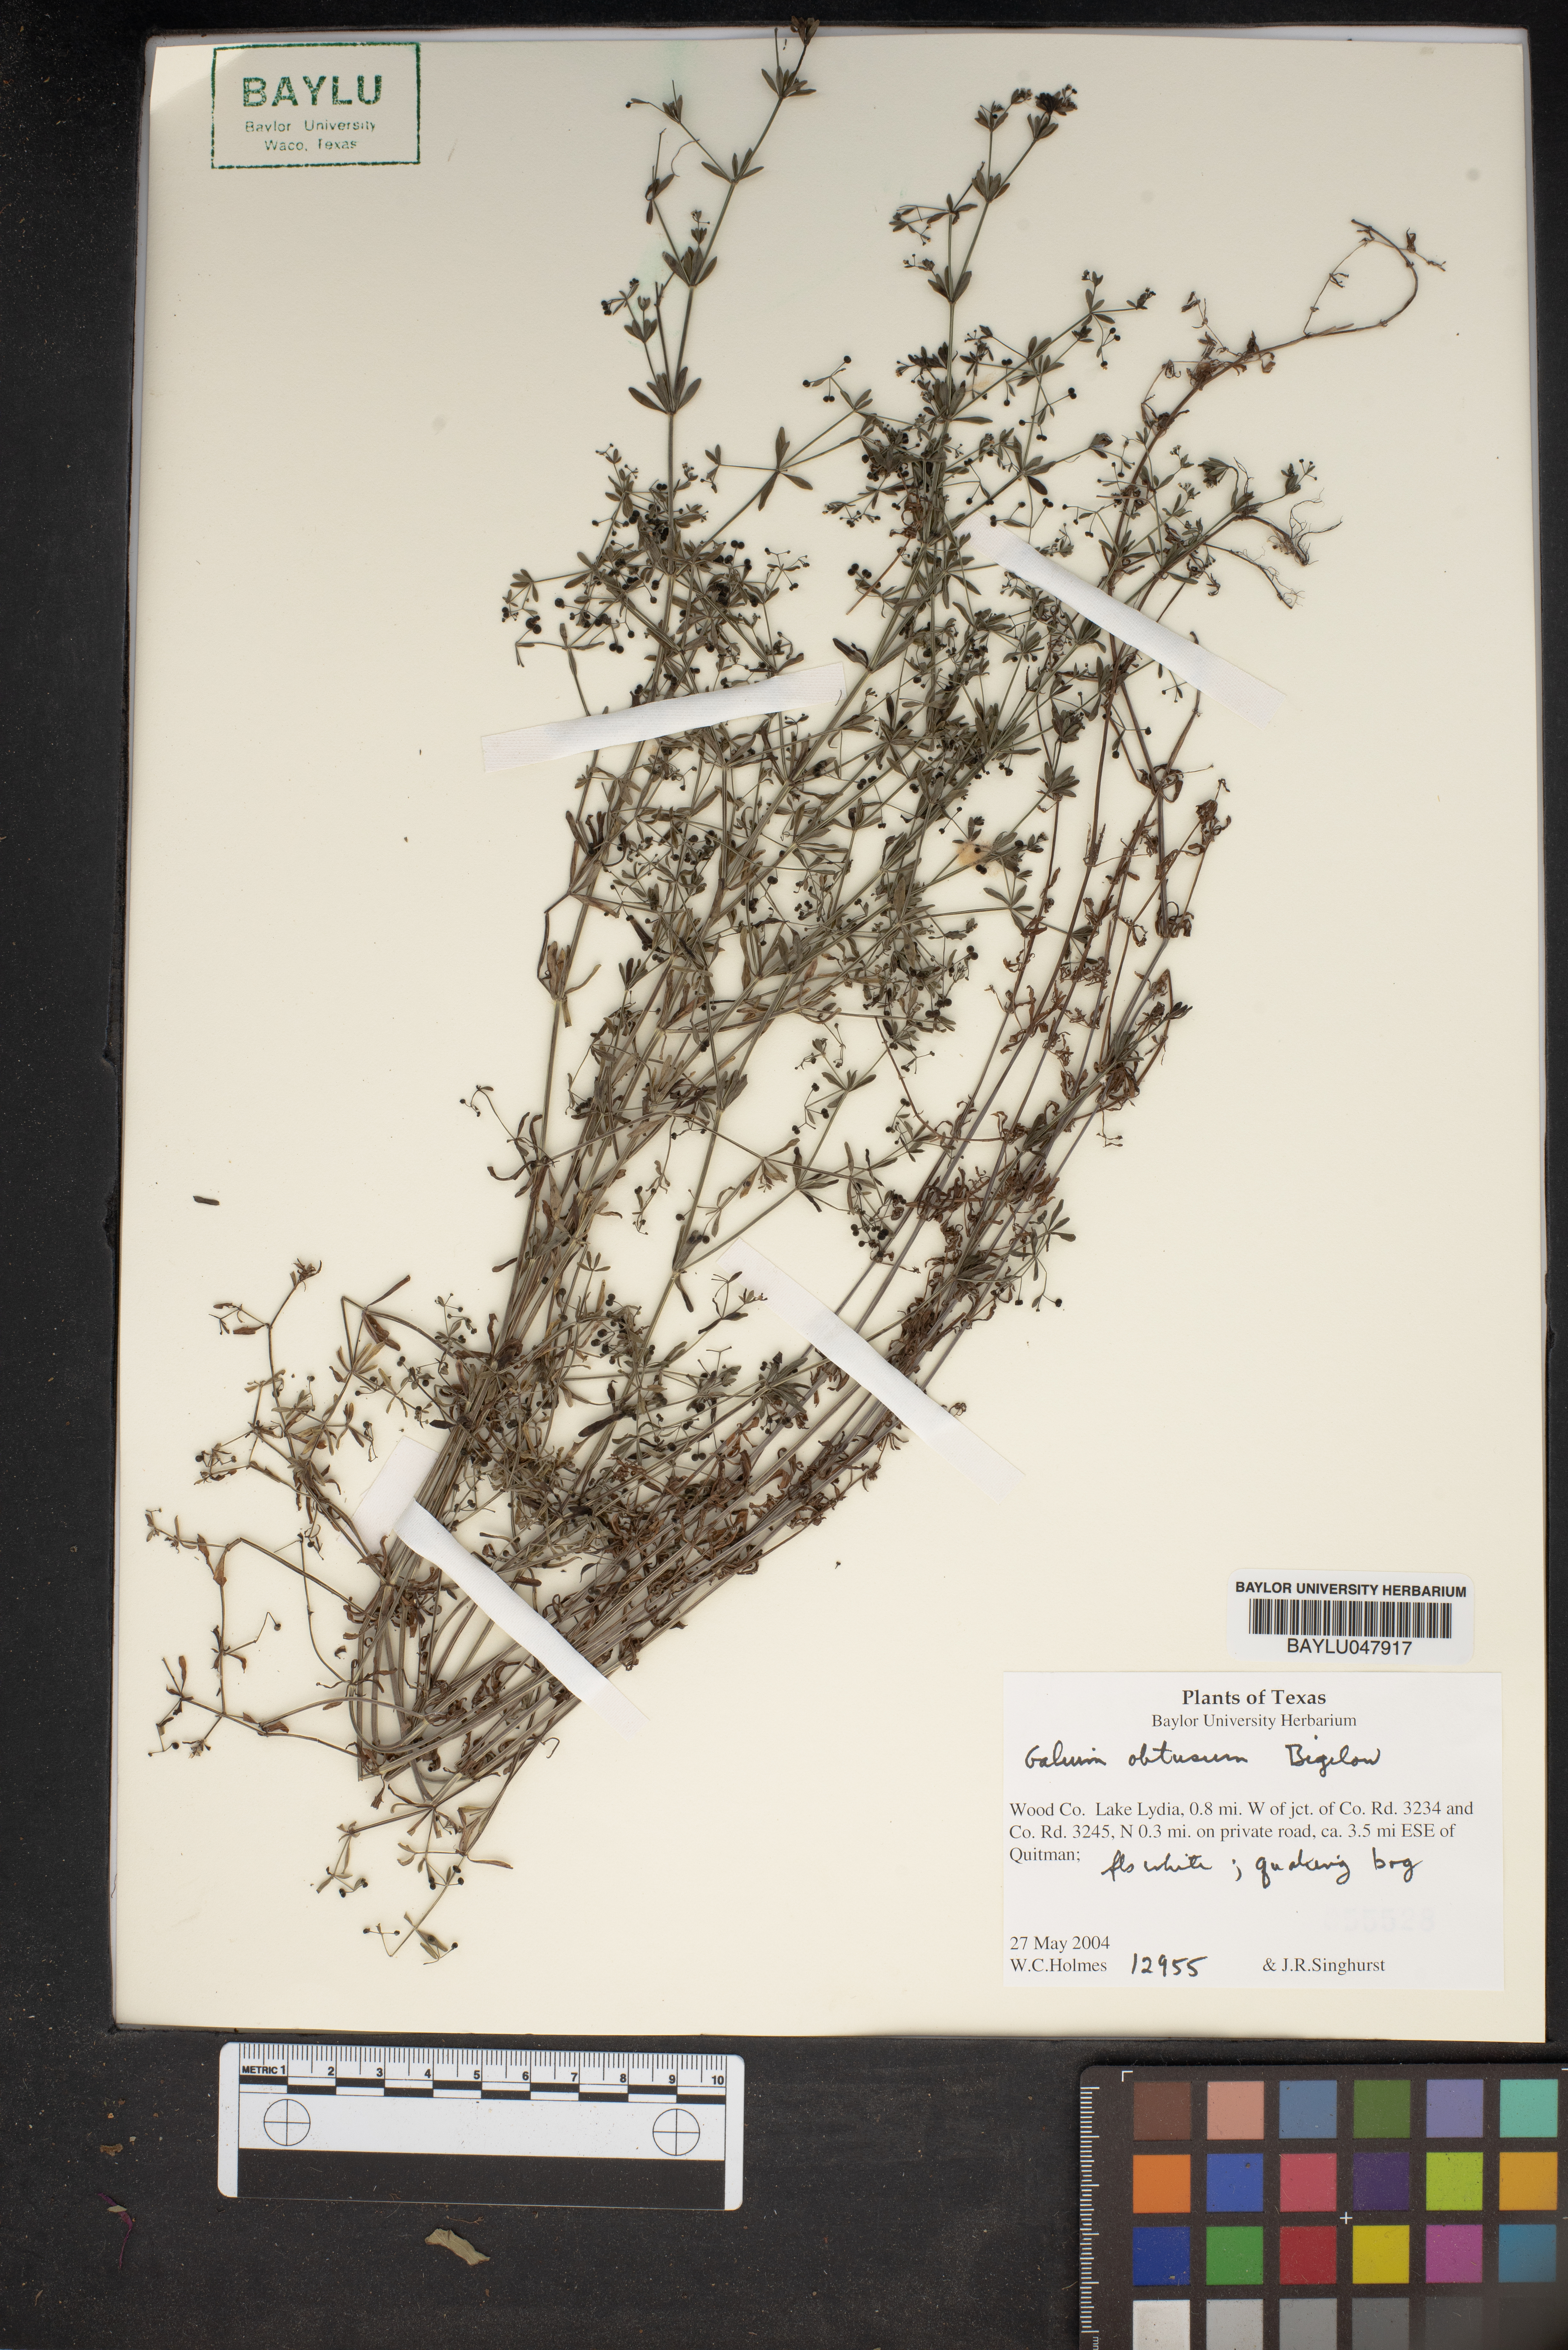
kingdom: Plantae
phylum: Tracheophyta
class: Magnoliopsida
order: Gentianales
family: Rubiaceae
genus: Galium
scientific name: Galium obtusum
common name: Blunt-leaved bedstraw
